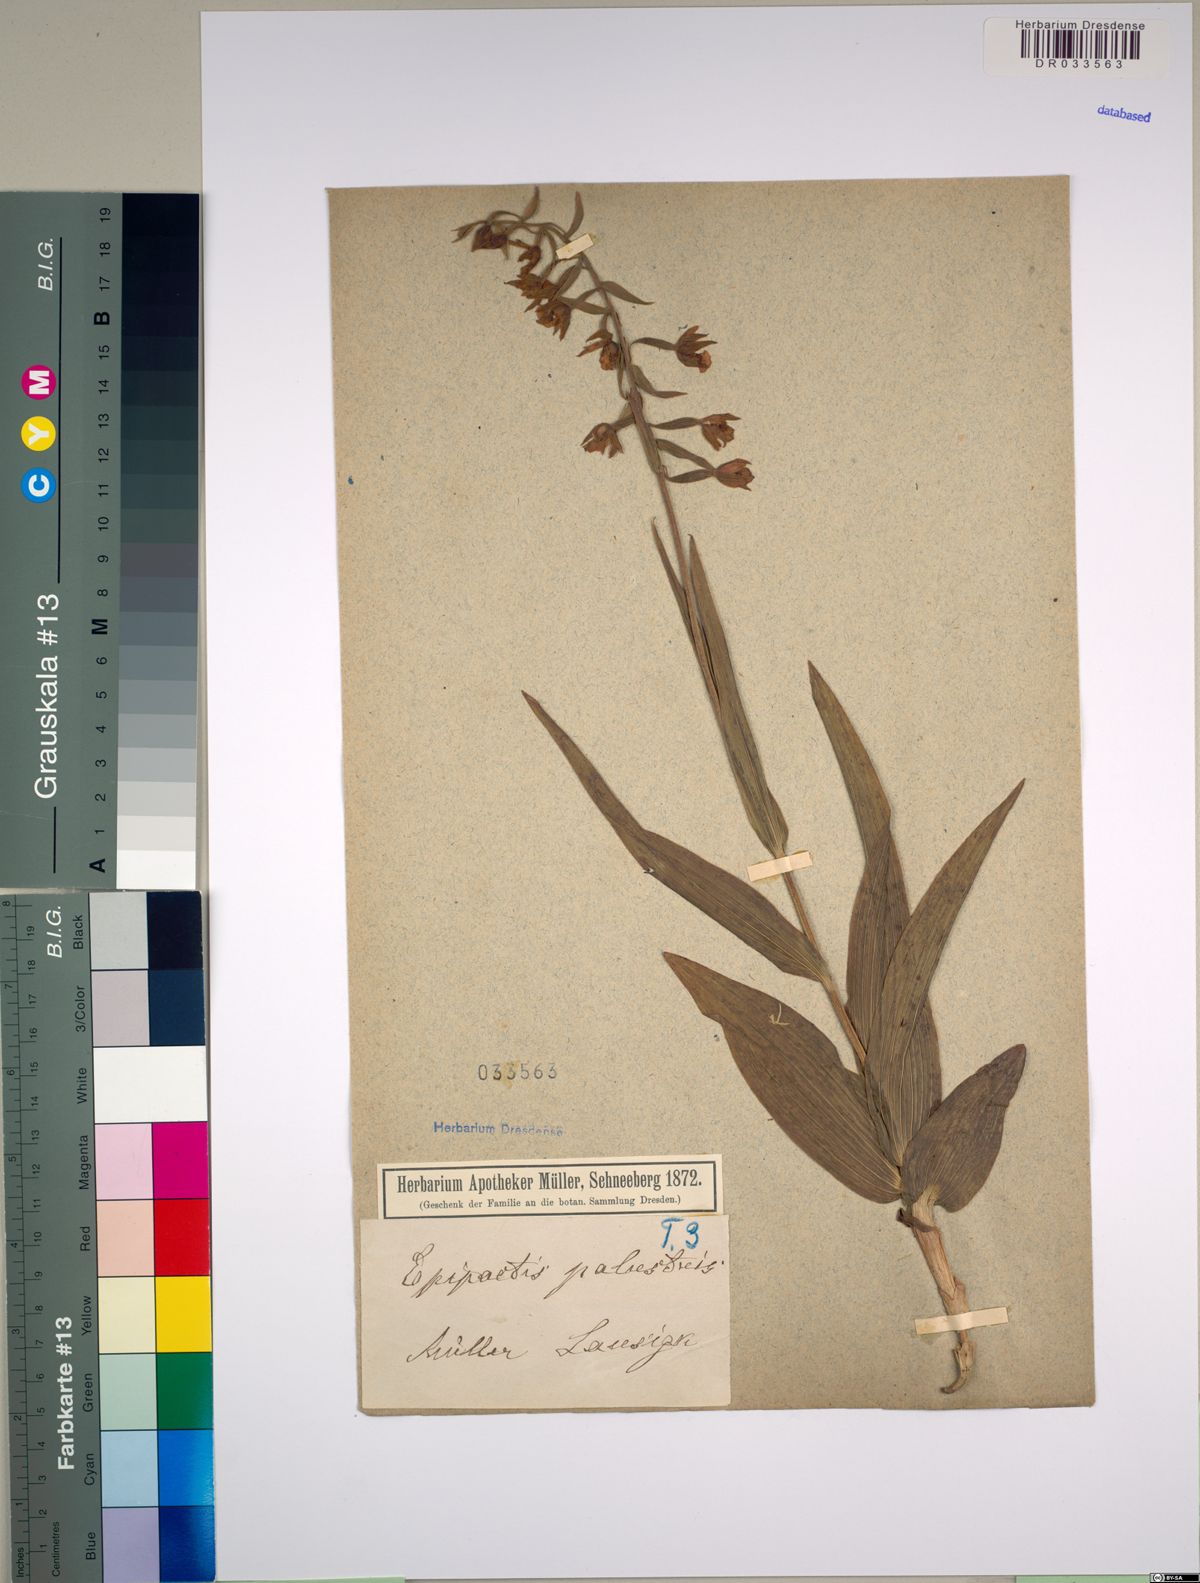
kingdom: Plantae
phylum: Tracheophyta
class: Liliopsida
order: Asparagales
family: Orchidaceae
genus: Epipactis
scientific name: Epipactis palustris
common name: Marsh helleborine
